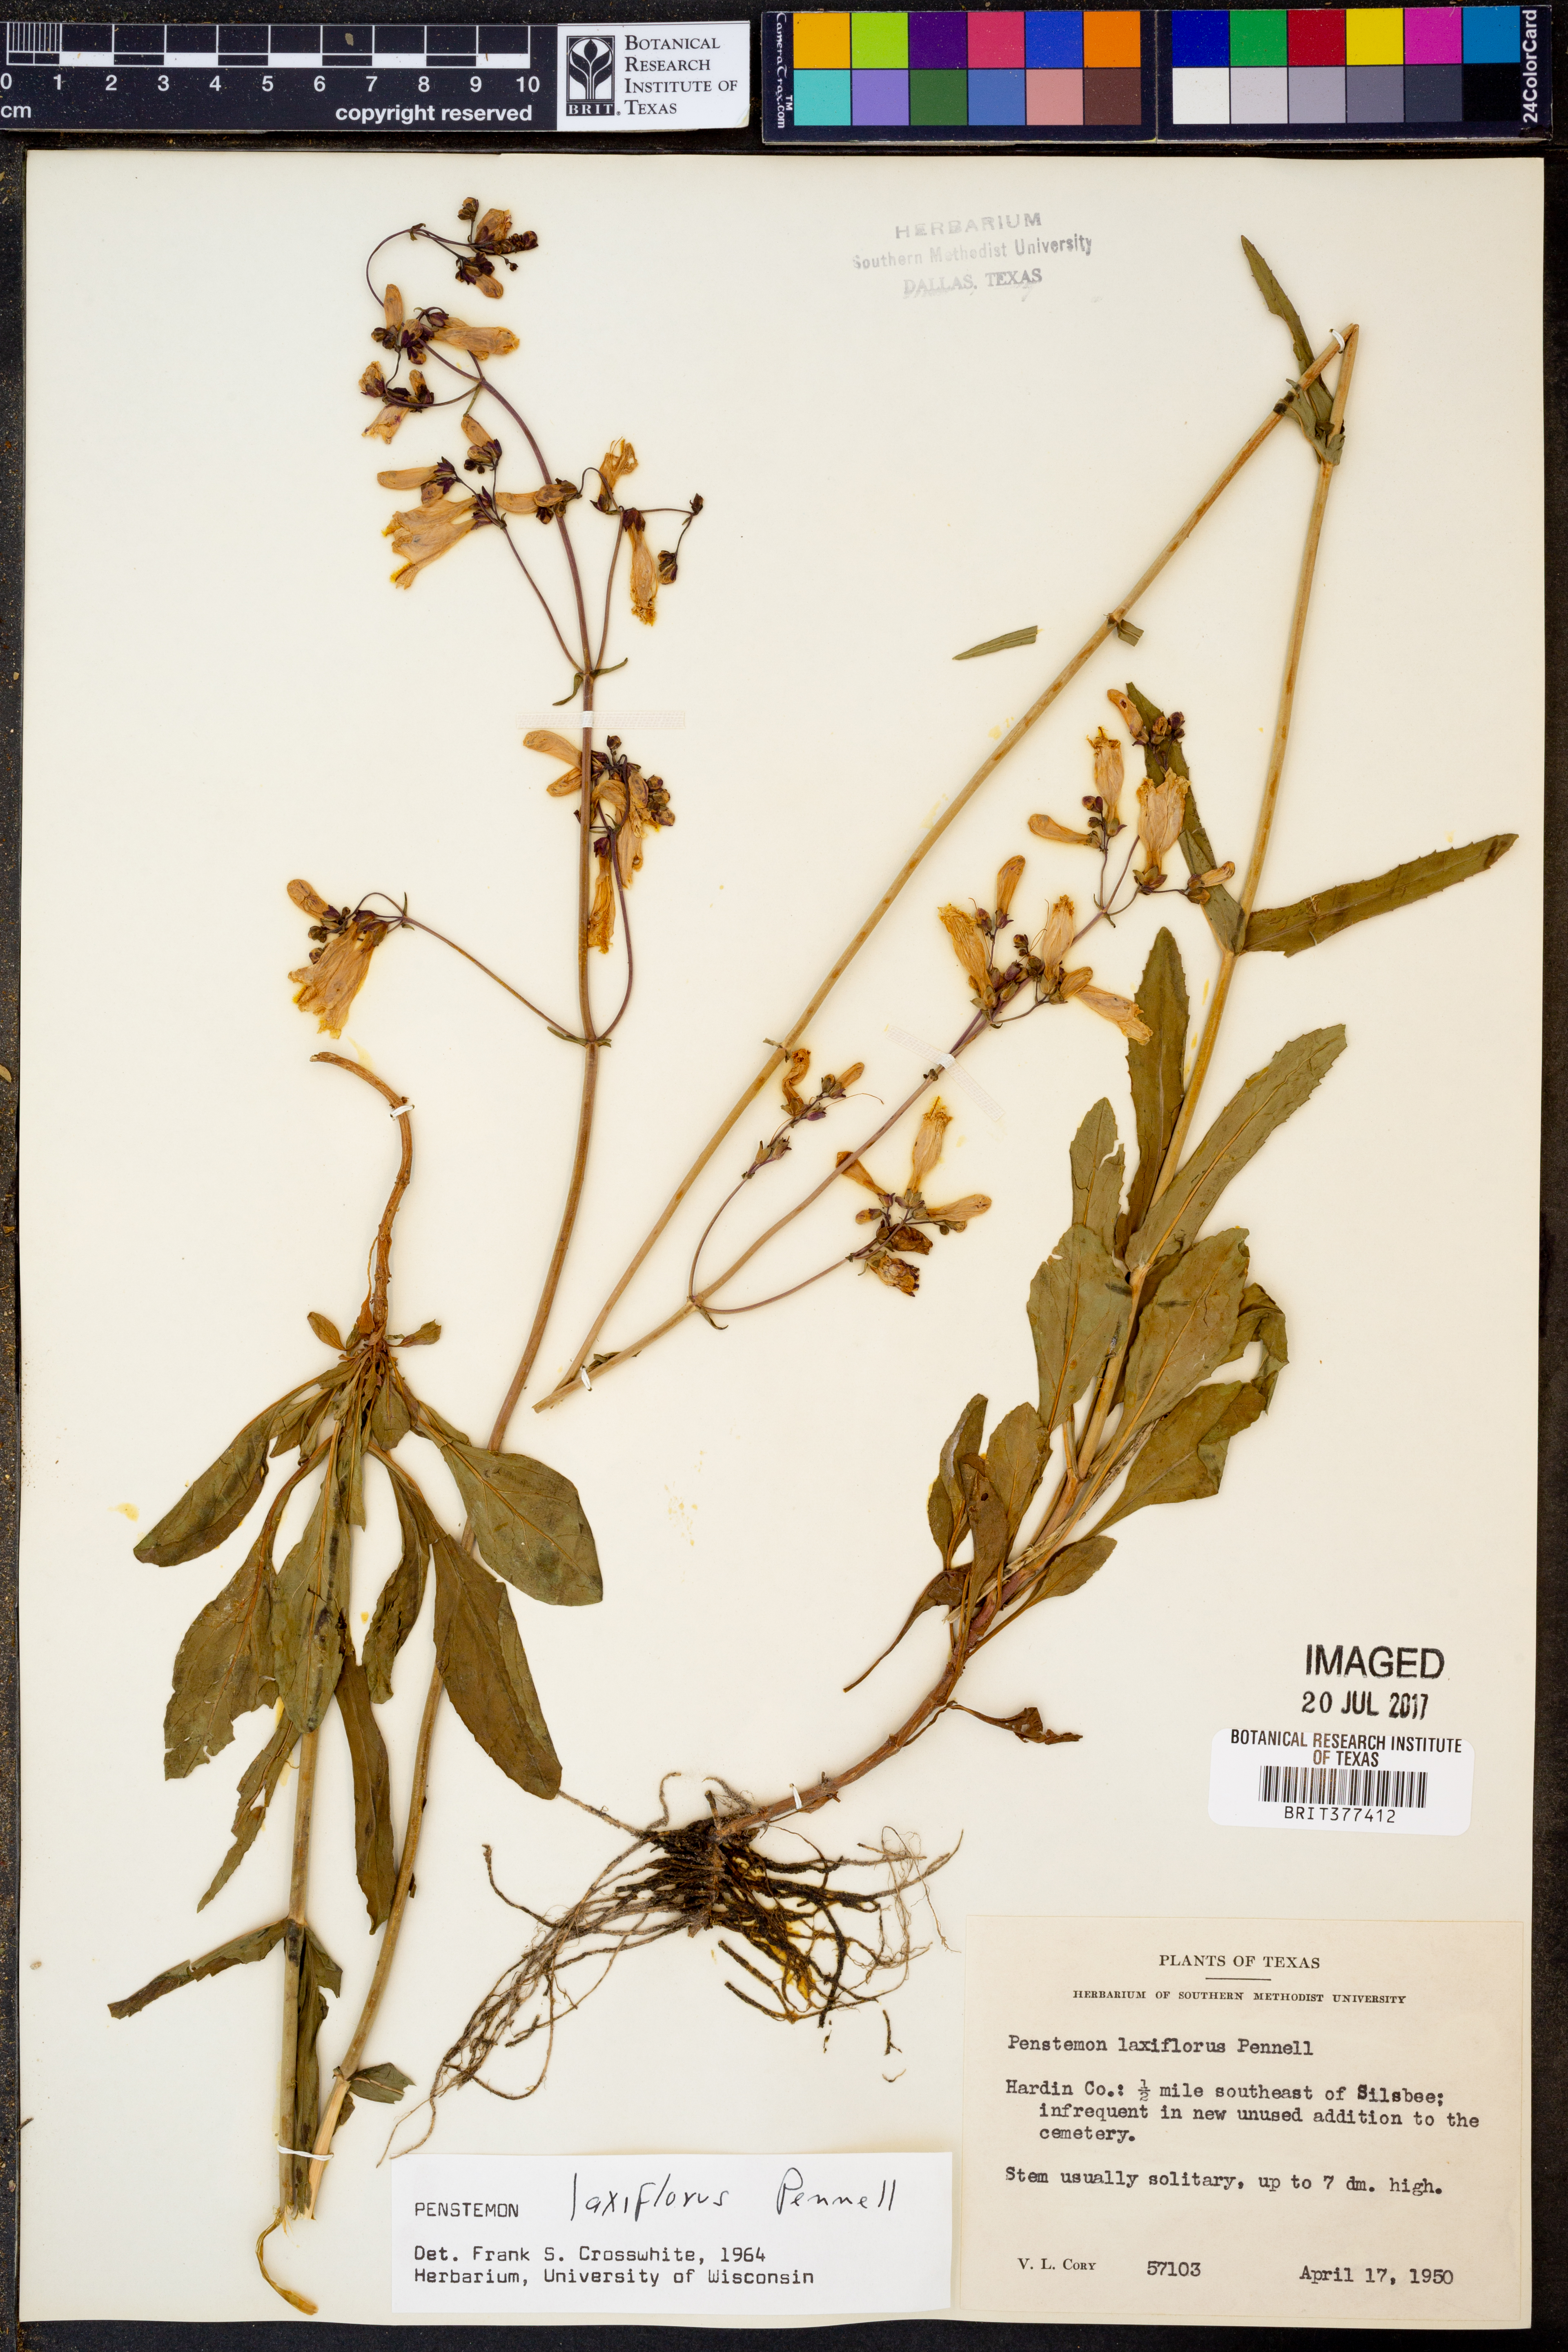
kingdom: Plantae
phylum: Tracheophyta
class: Magnoliopsida
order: Lamiales
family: Plantaginaceae
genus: Penstemon
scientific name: Penstemon laxiflorus
